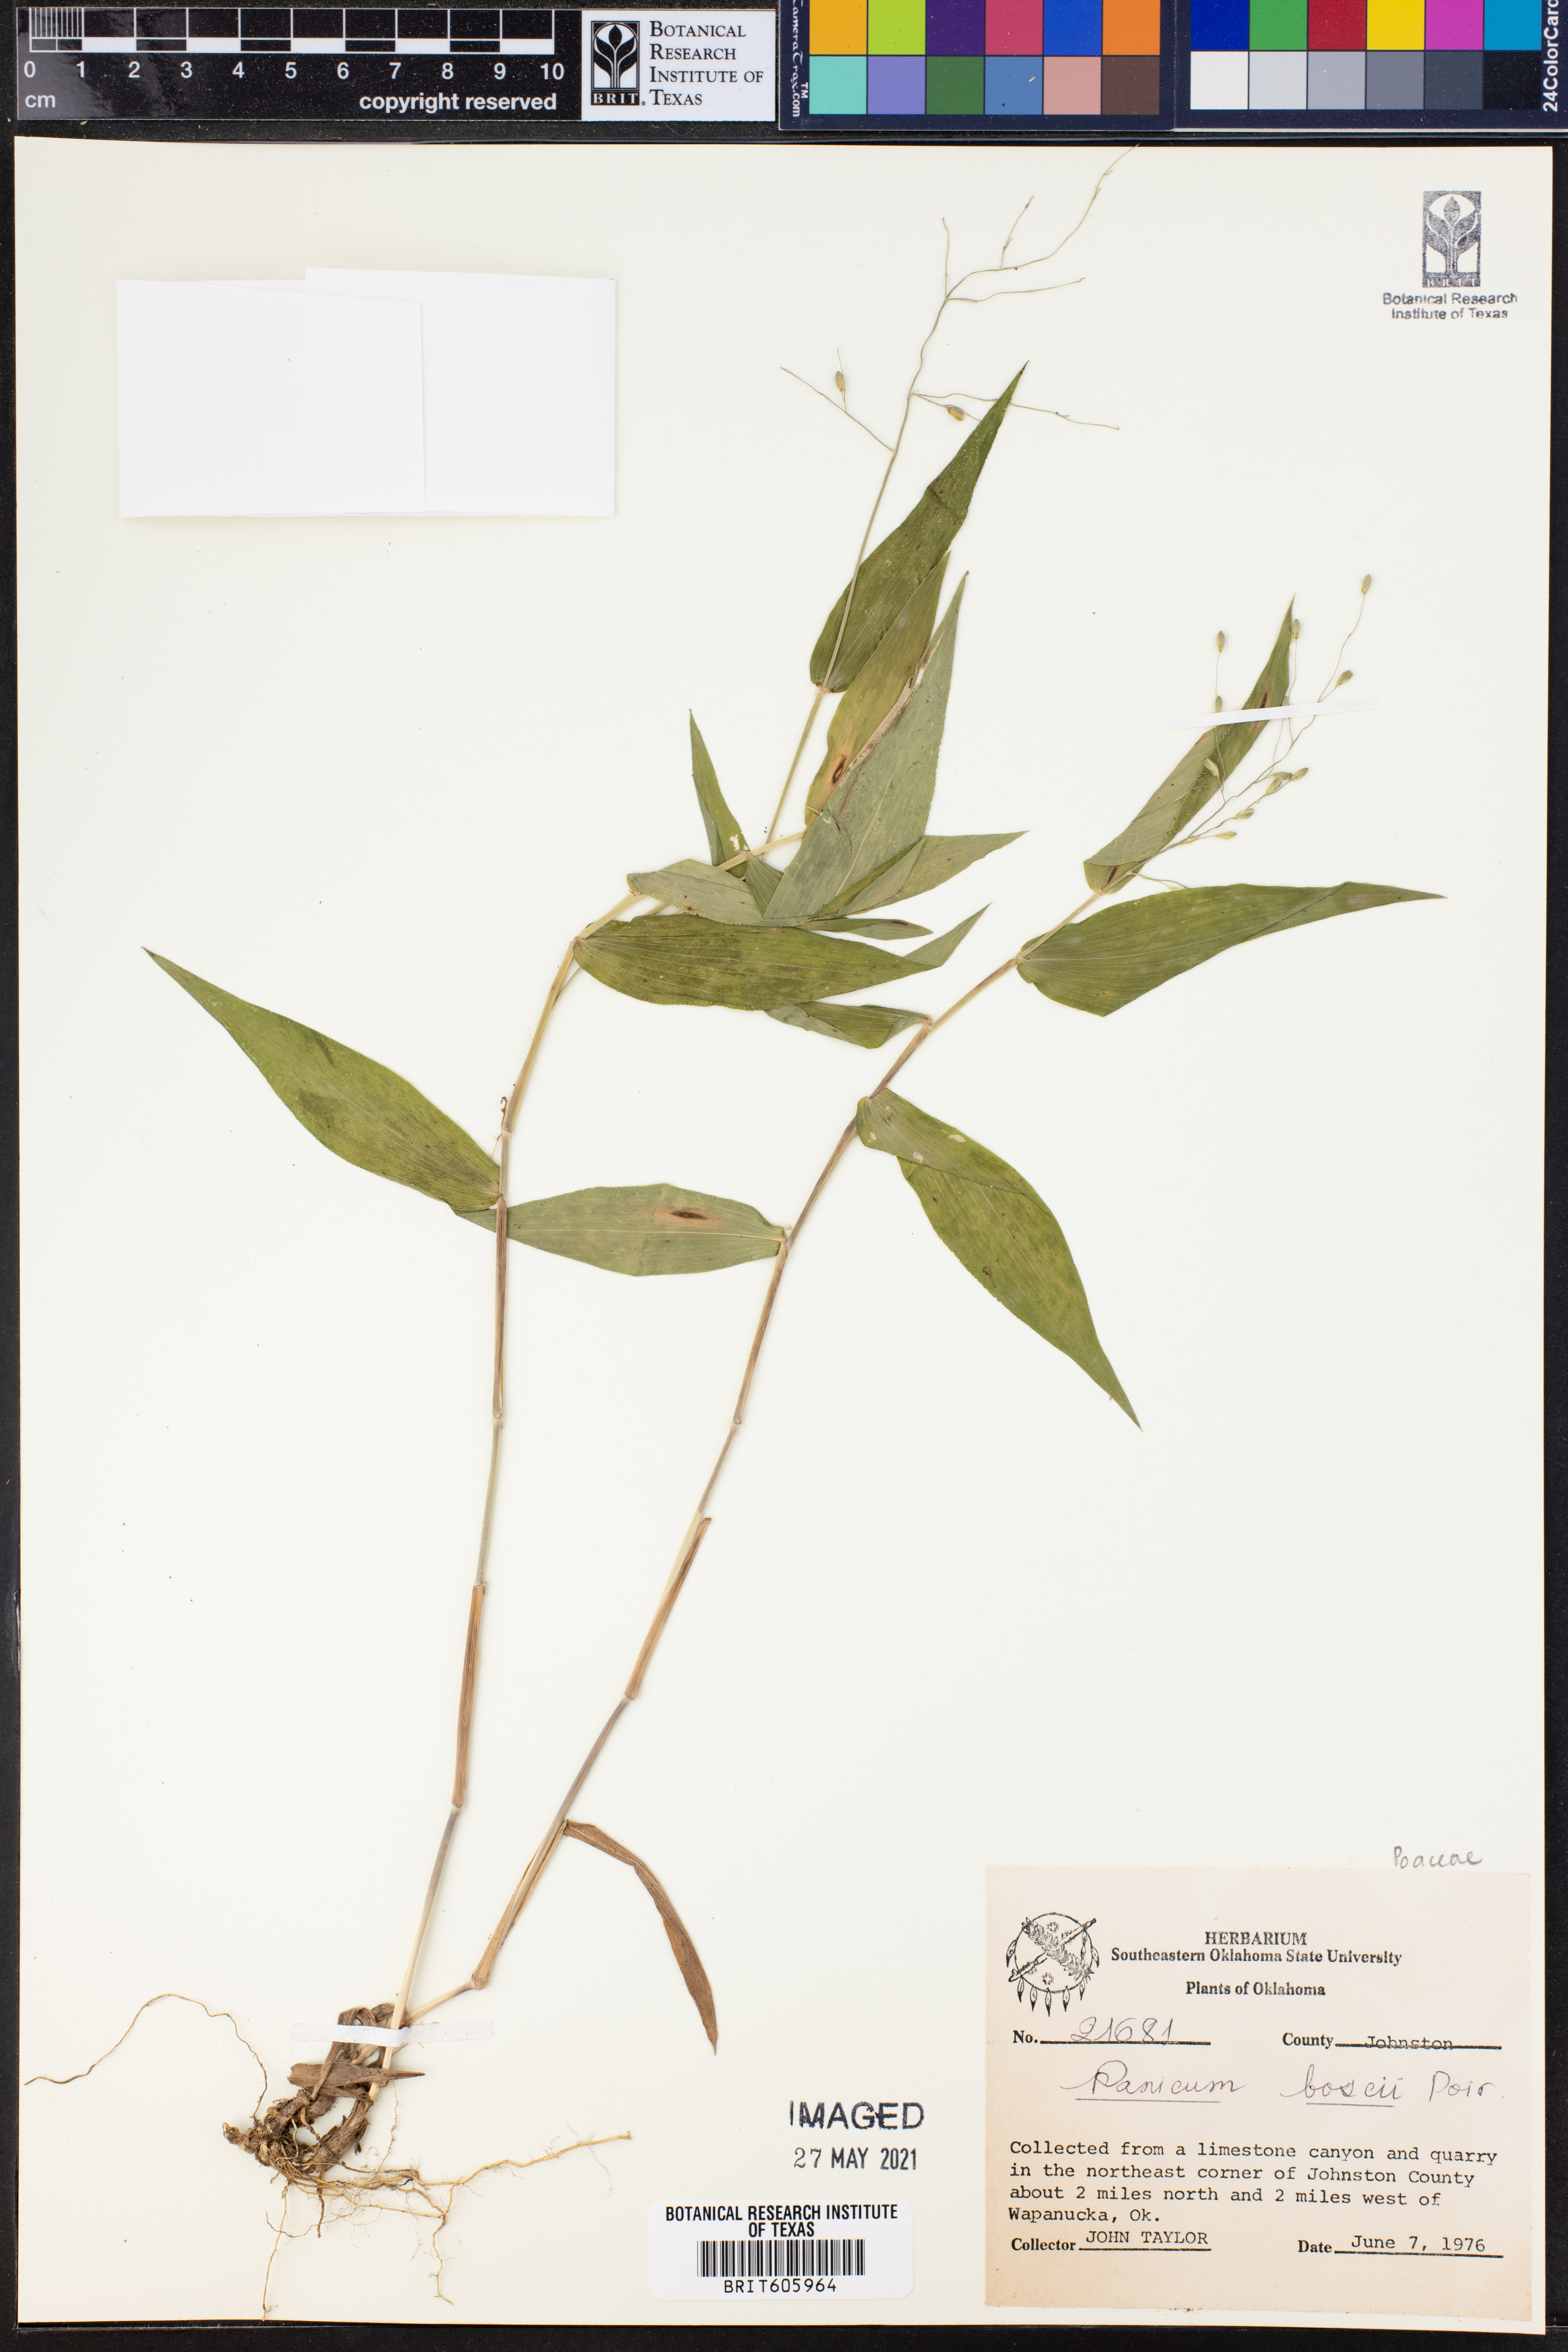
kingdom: Plantae
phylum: Tracheophyta
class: Liliopsida
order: Poales
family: Poaceae
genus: Dichanthelium
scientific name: Dichanthelium boscii
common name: Bosc's panic grass
